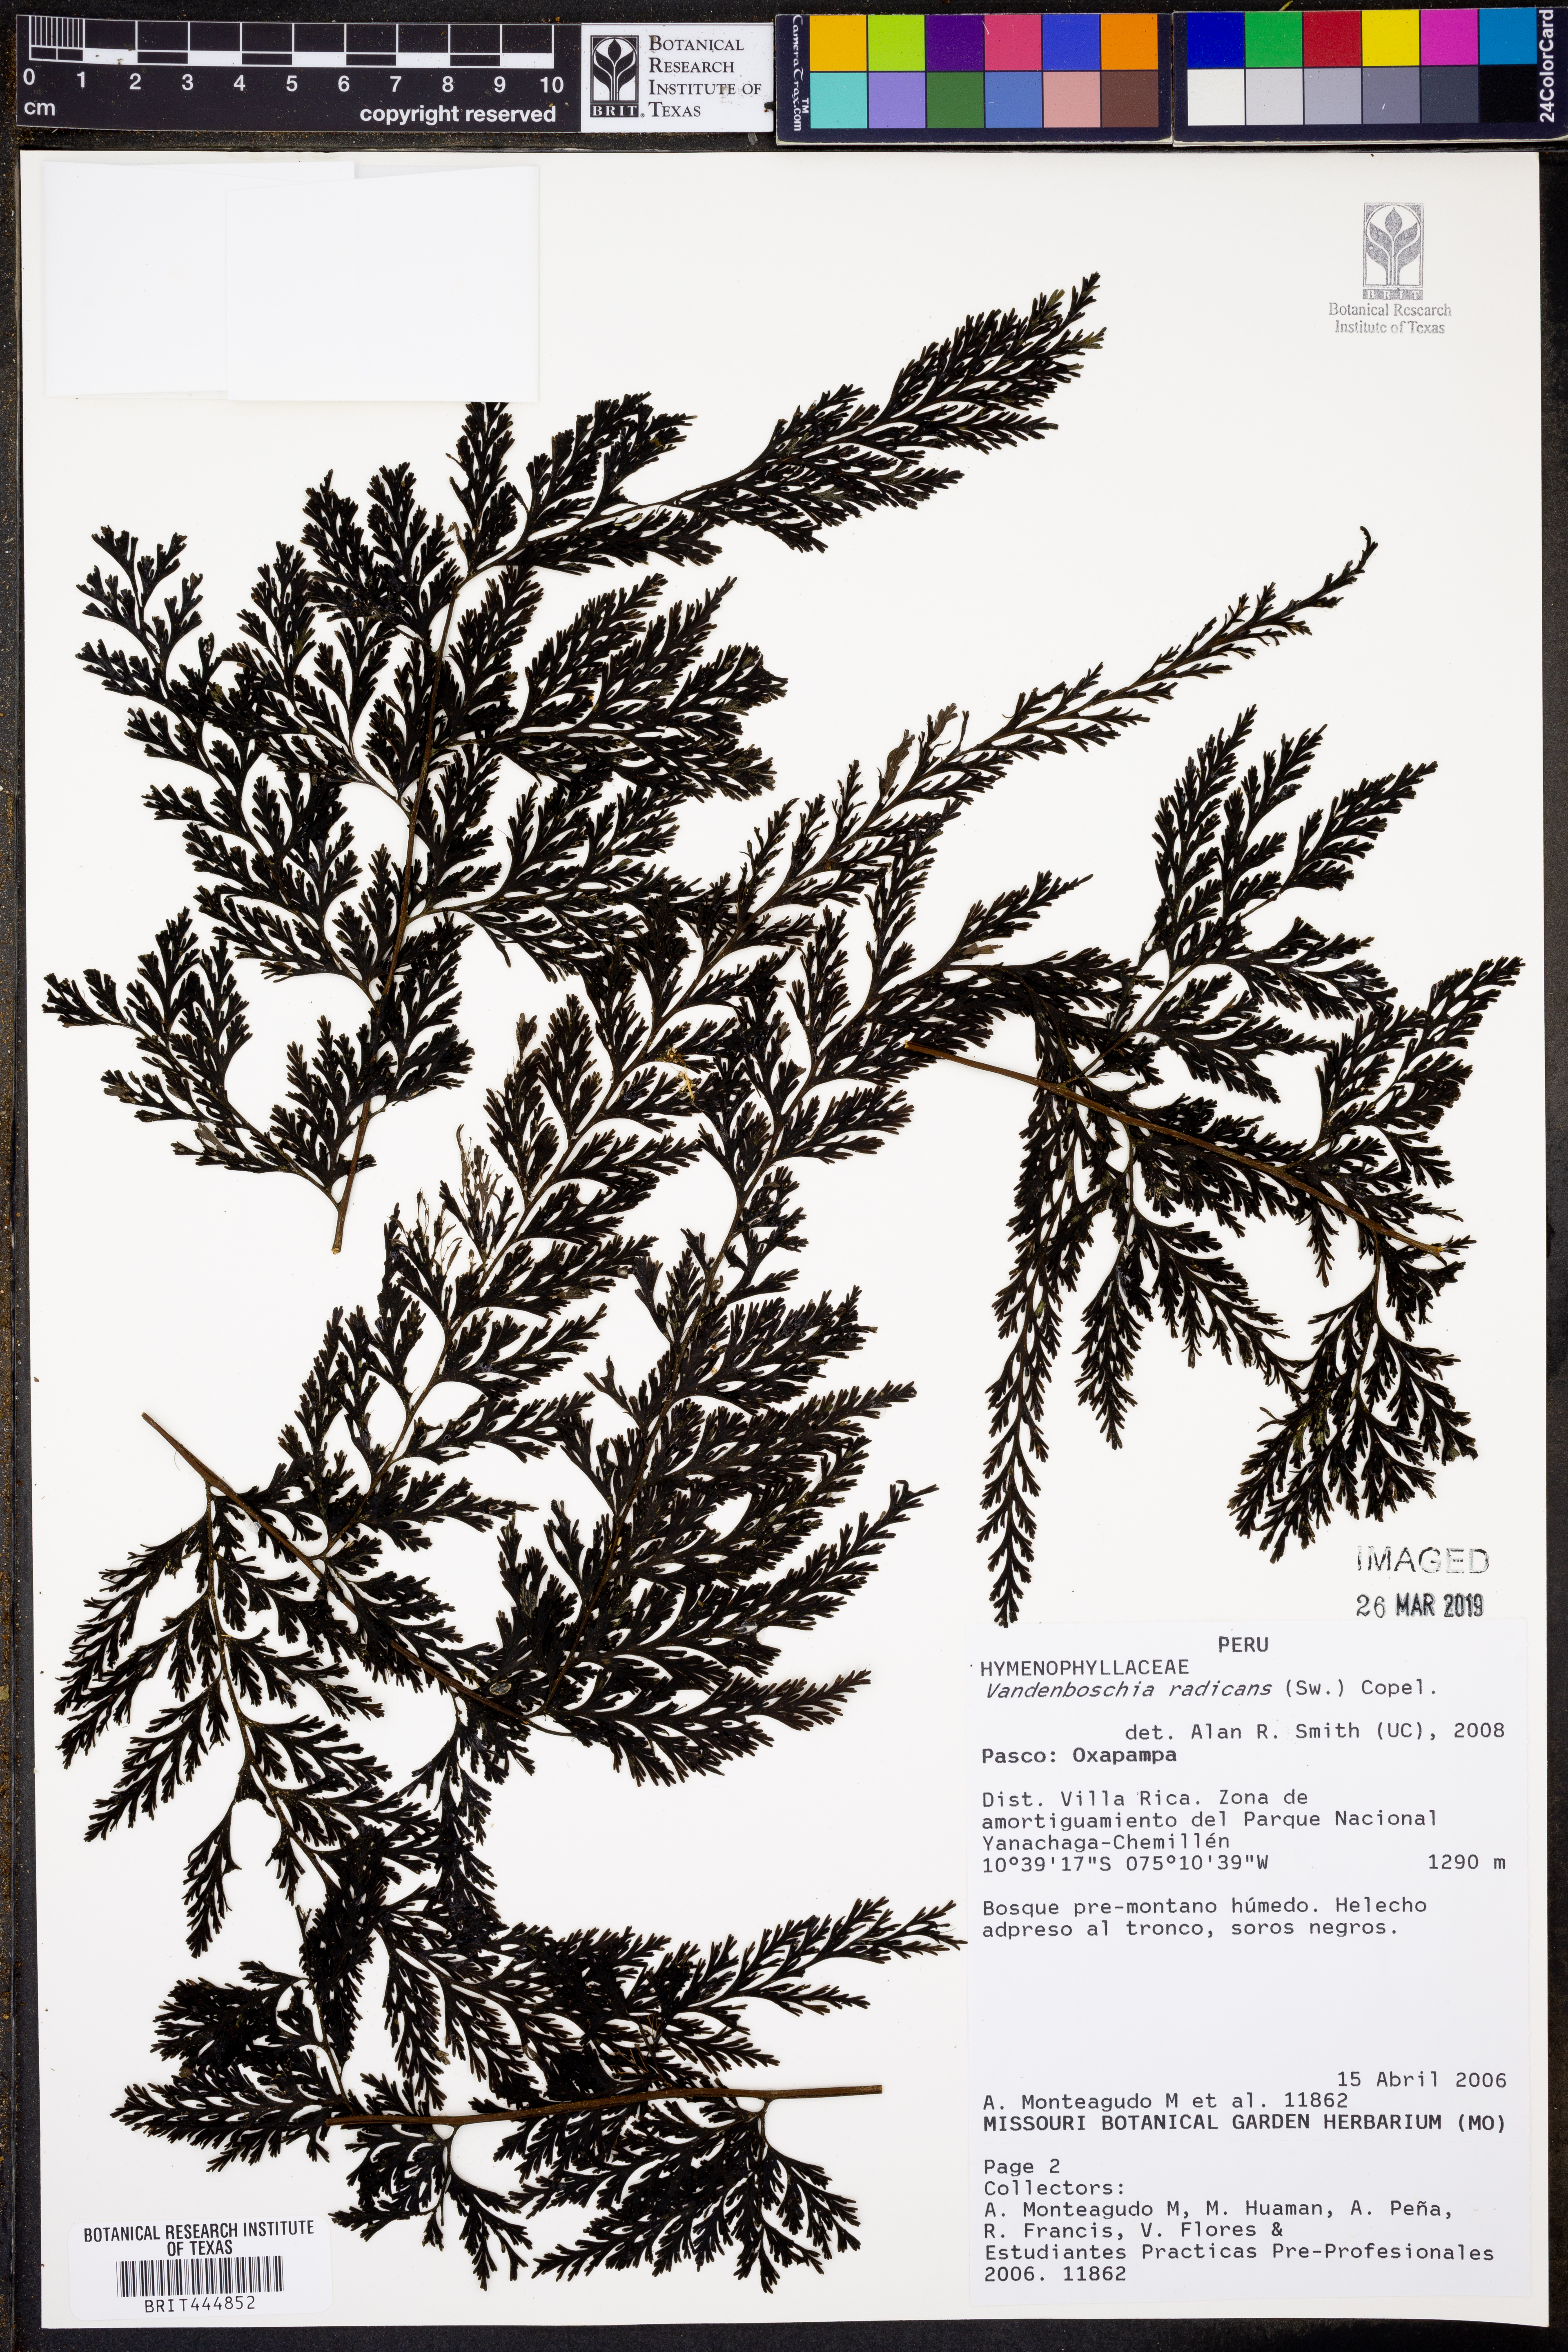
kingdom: Plantae
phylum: Tracheophyta
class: Polypodiopsida
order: Hymenophyllales
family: Hymenophyllaceae
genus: Vandenboschia
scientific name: Vandenboschia radicans
